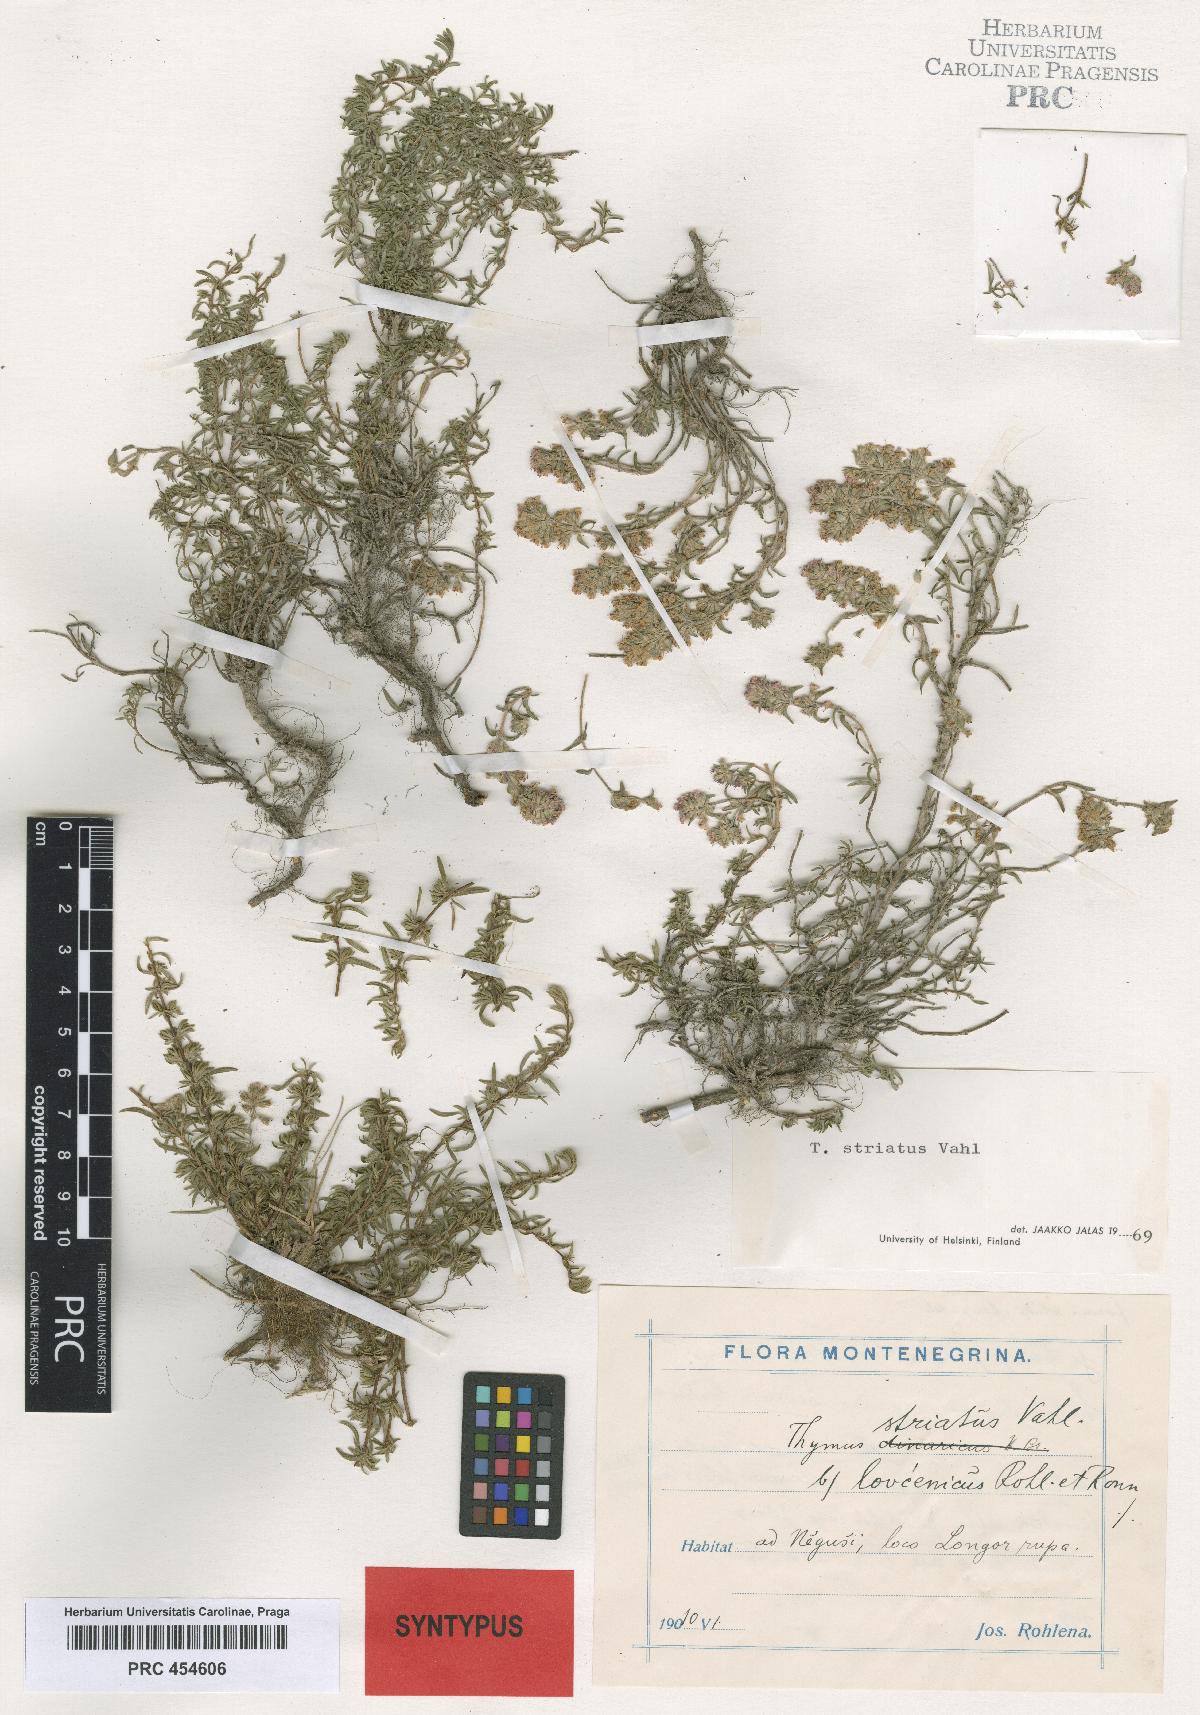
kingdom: Plantae
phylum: Tracheophyta
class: Magnoliopsida
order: Lamiales
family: Lamiaceae
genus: Thymus
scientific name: Thymus striatus
